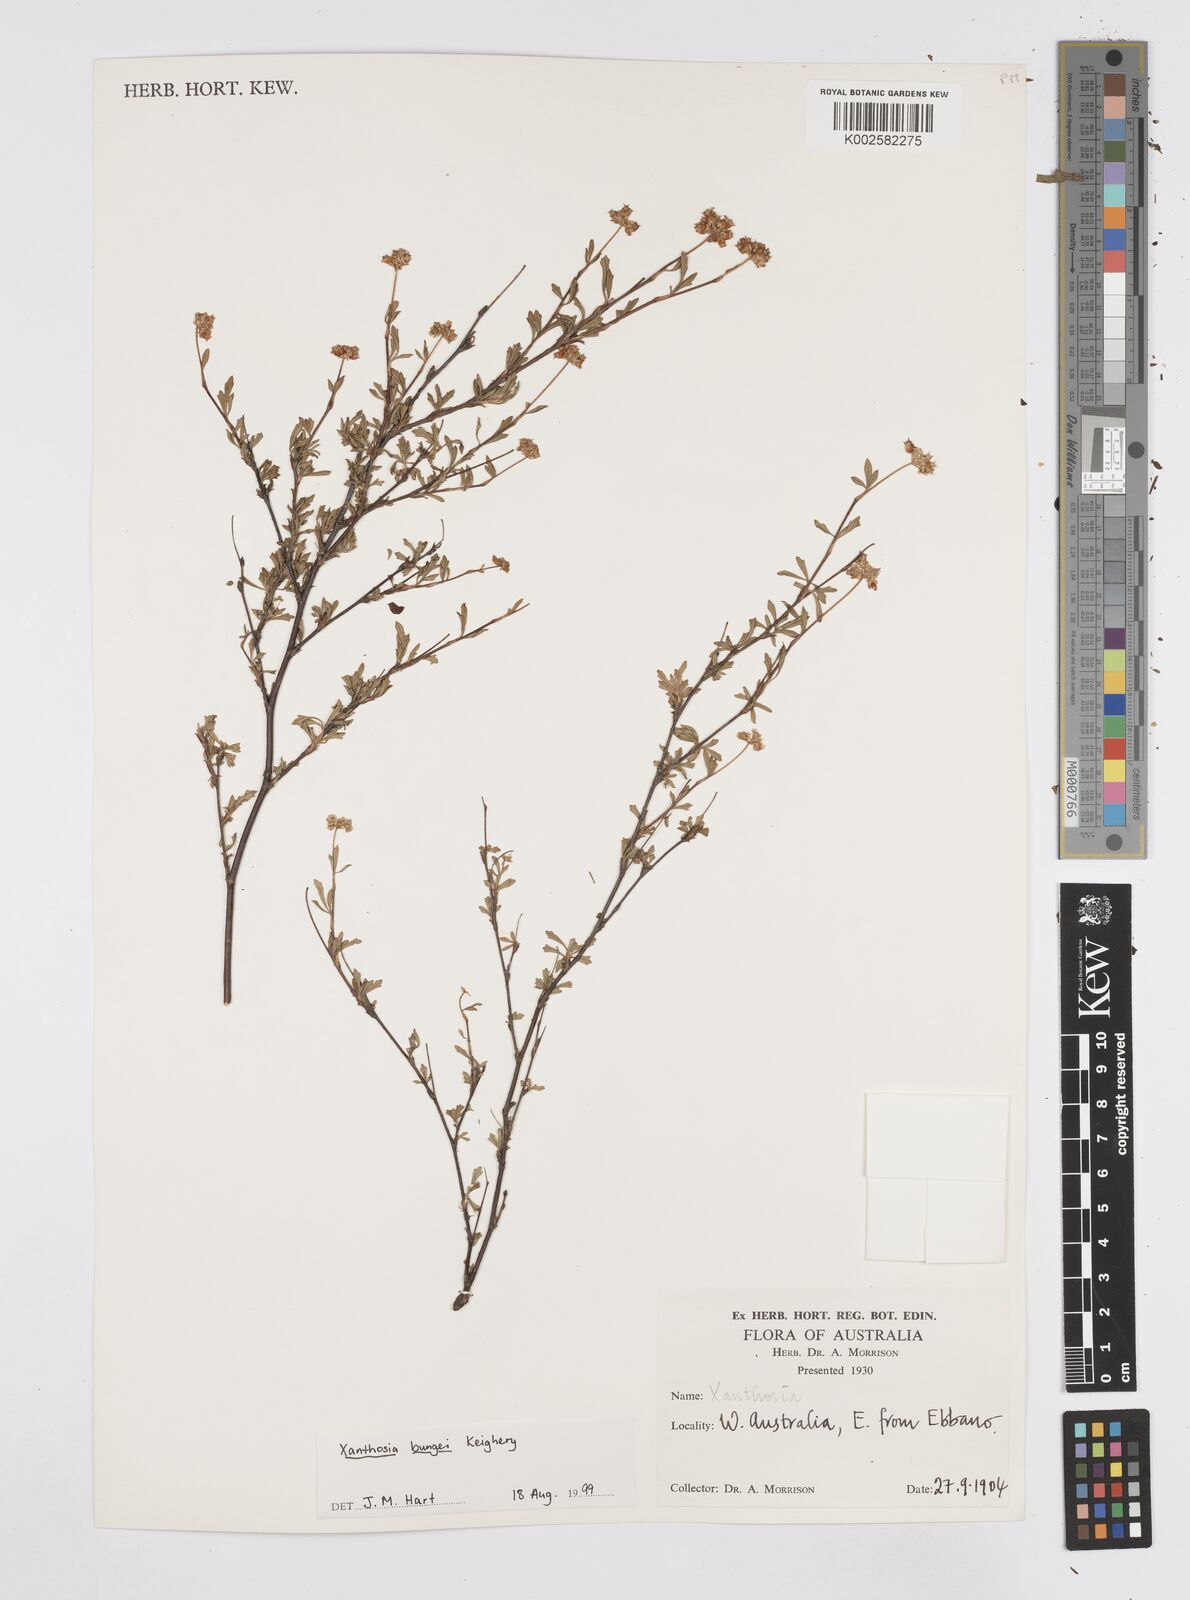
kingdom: Plantae
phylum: Tracheophyta
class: Magnoliopsida
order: Apiales
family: Apiaceae
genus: Xanthosia
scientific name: Xanthosia kochii
